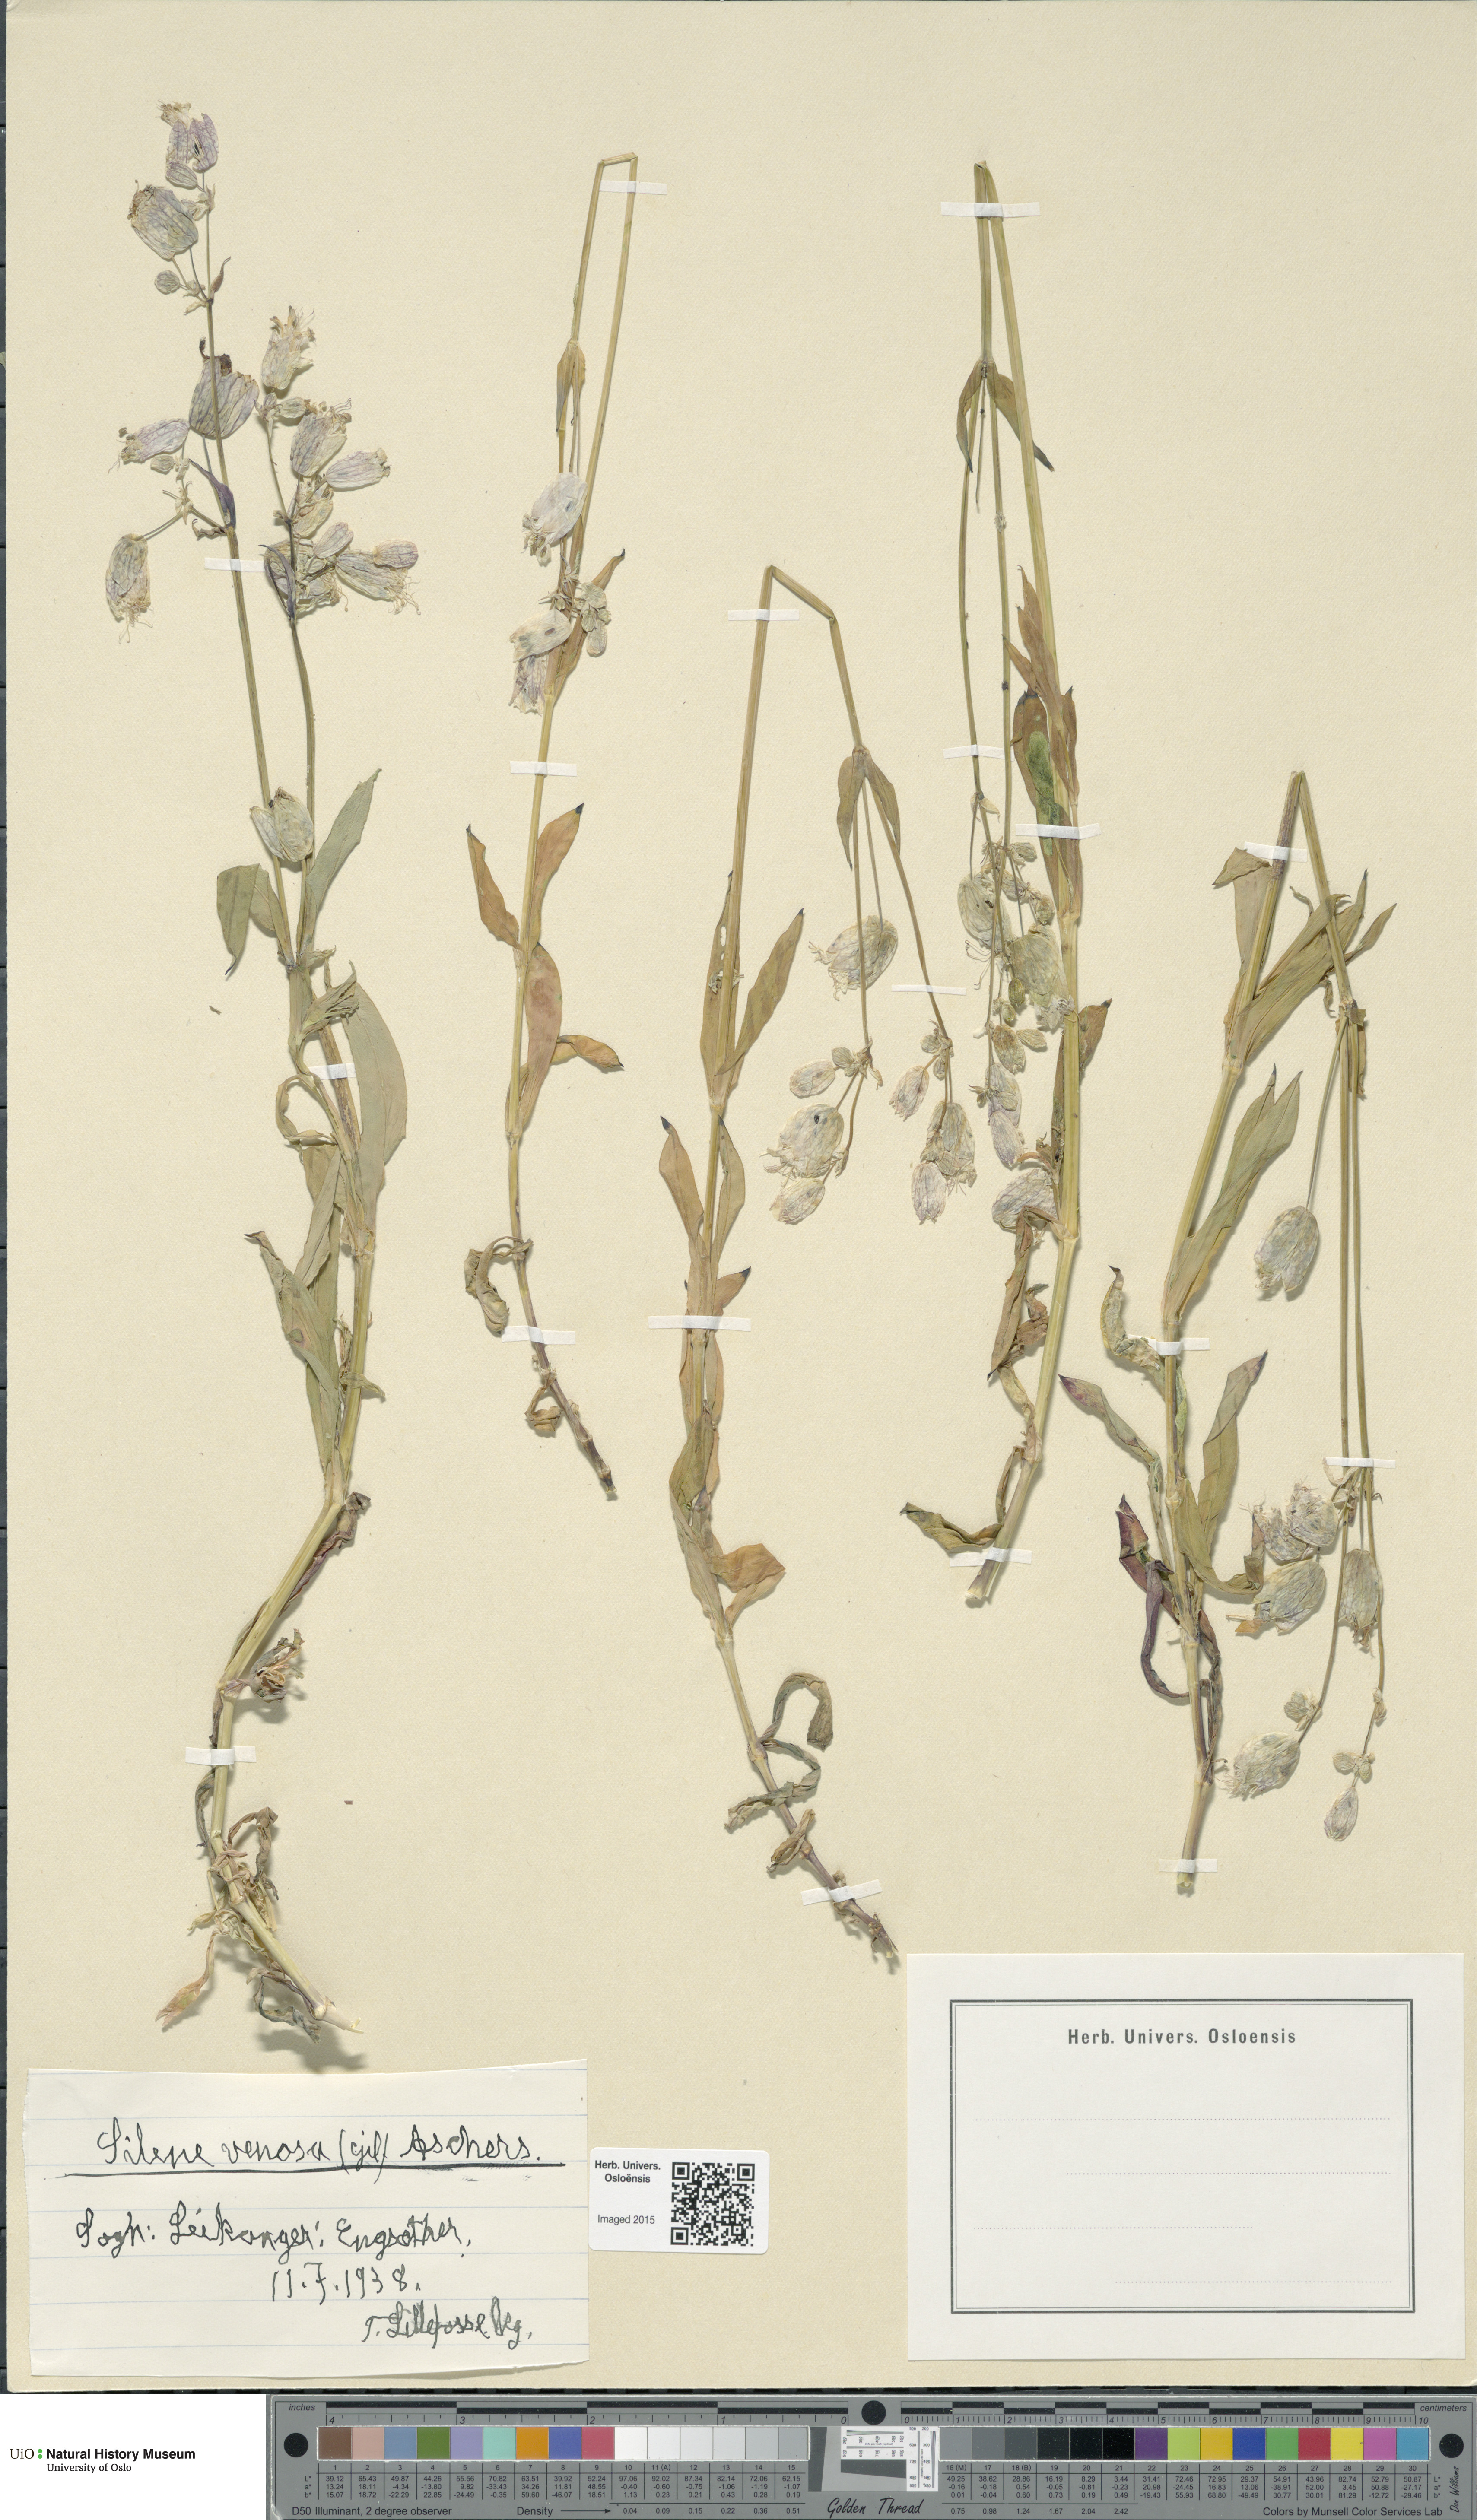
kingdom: Plantae
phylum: Tracheophyta
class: Magnoliopsida
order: Caryophyllales
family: Caryophyllaceae
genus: Silene
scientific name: Silene vulgaris
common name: Bladder campion
